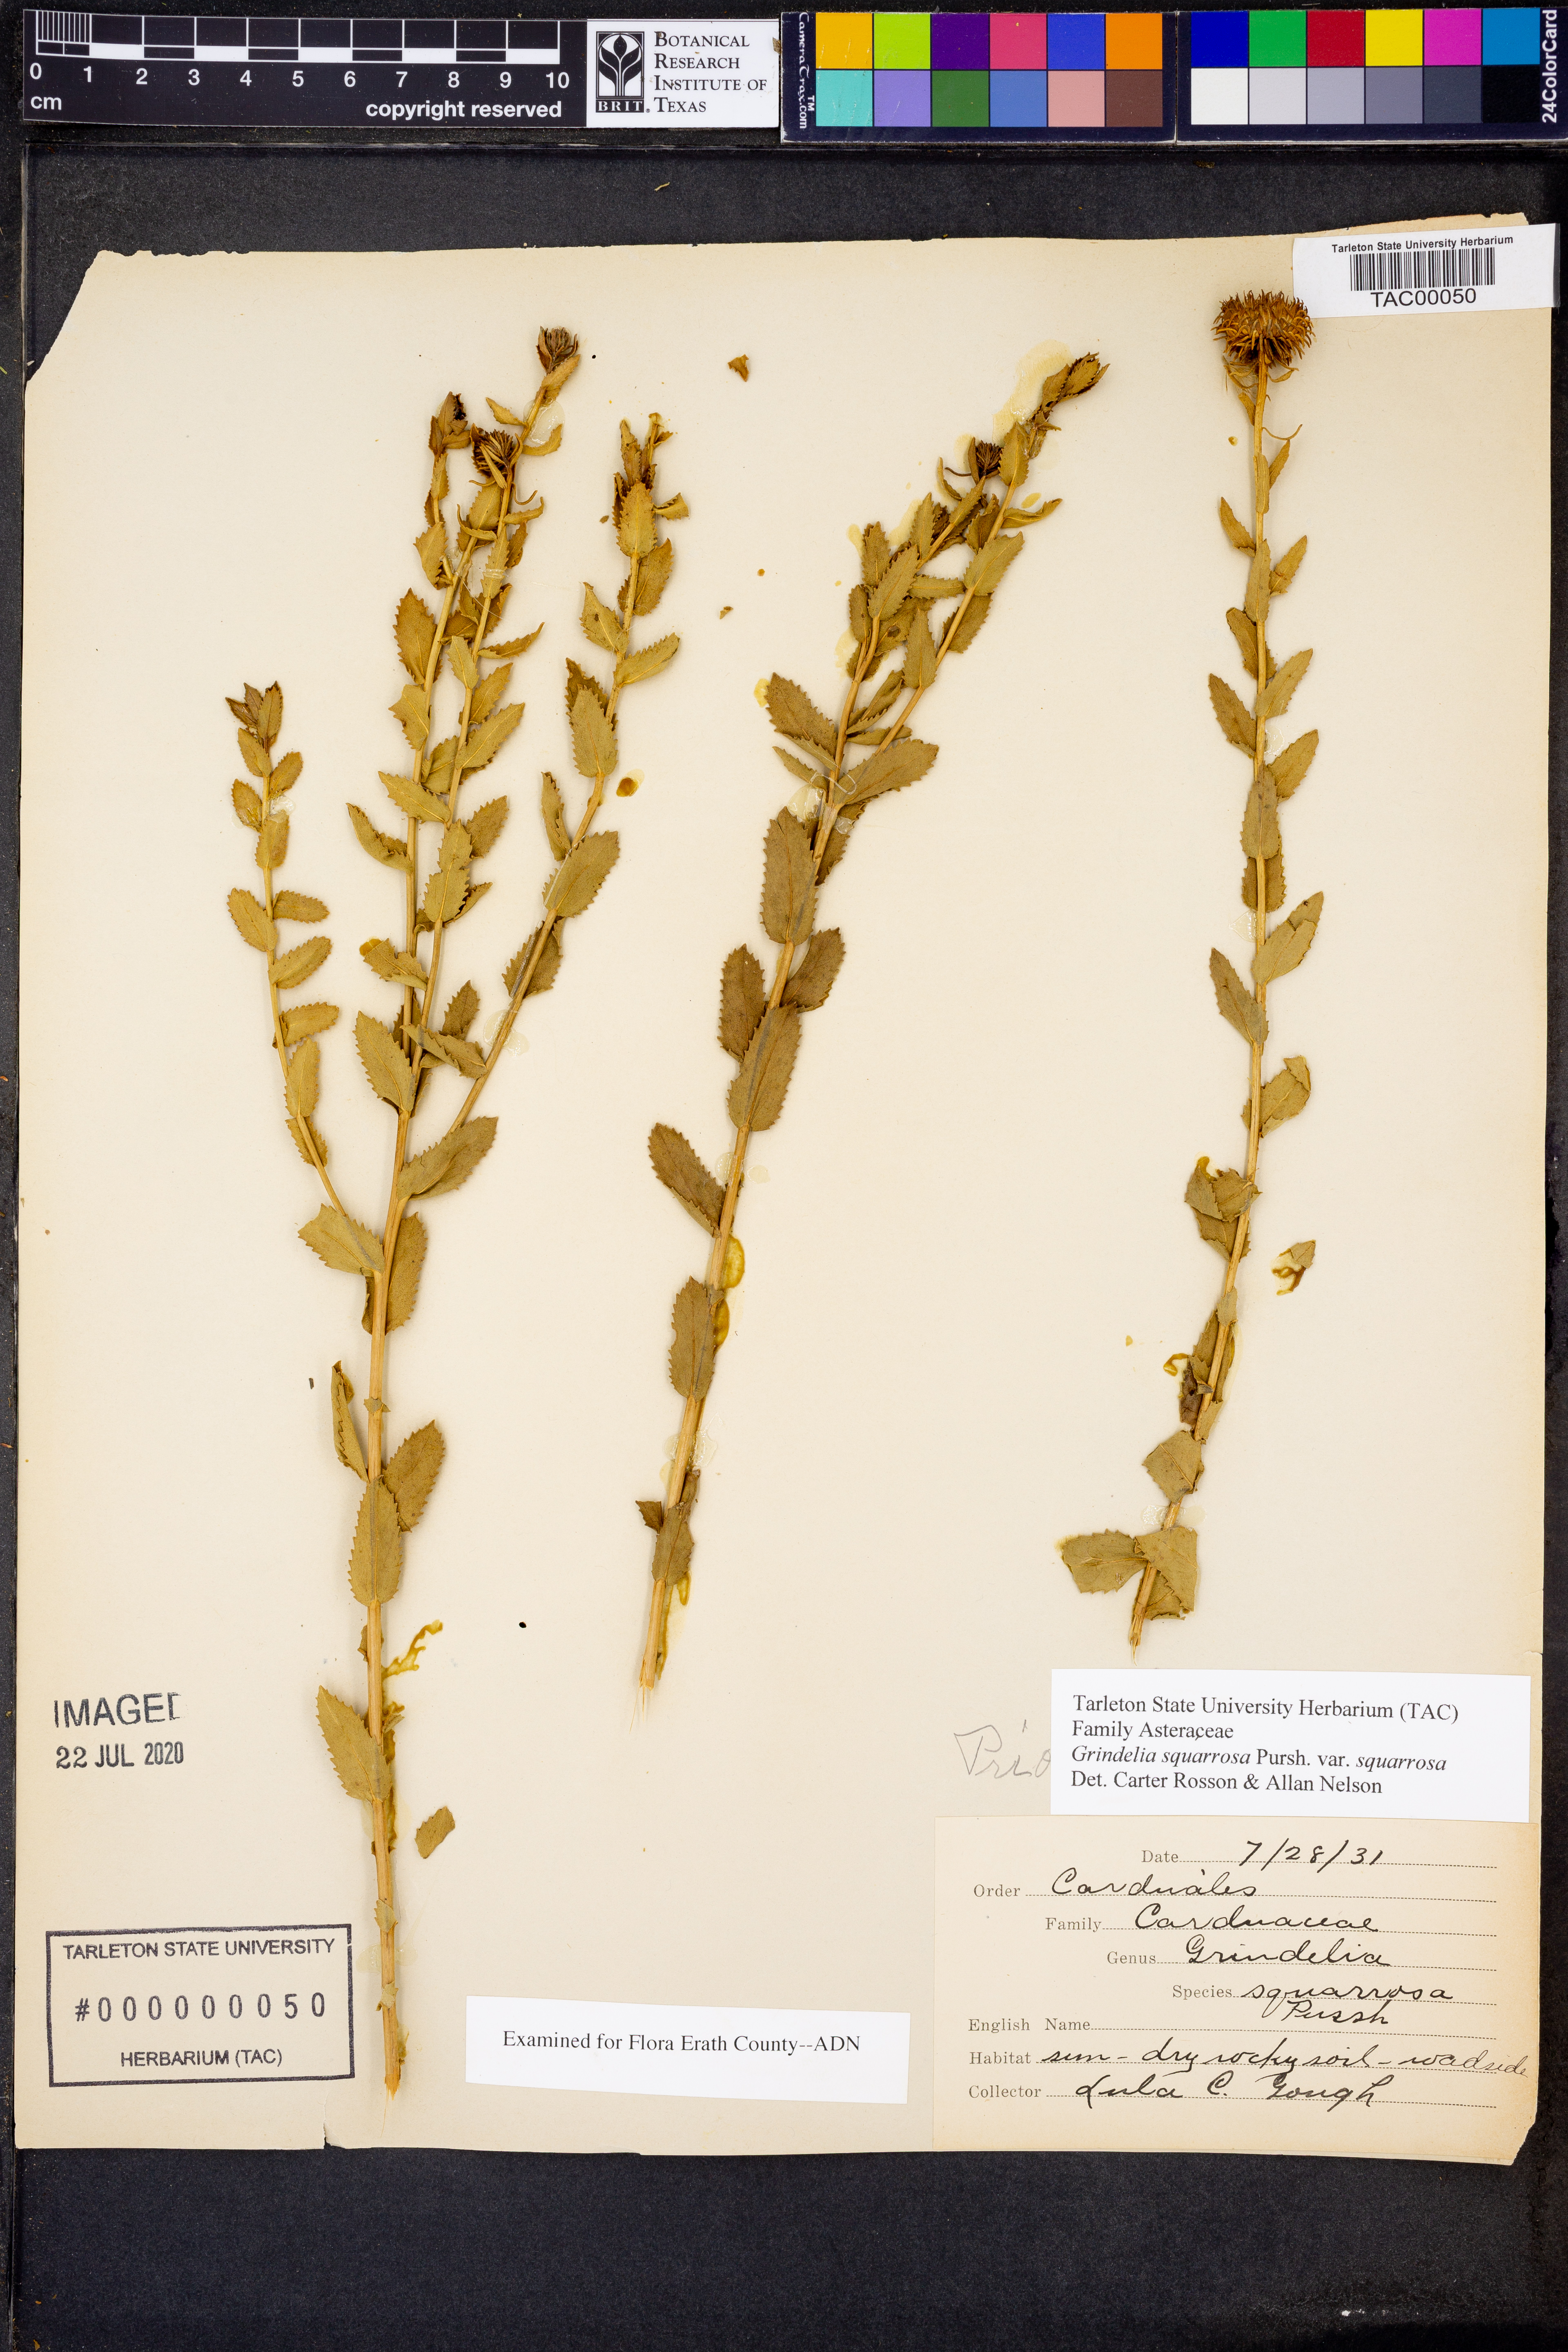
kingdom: Plantae
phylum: Tracheophyta
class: Magnoliopsida
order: Asterales
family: Asteraceae
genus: Grindelia
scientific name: Grindelia squarrosa
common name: Curly-cup gumweed
